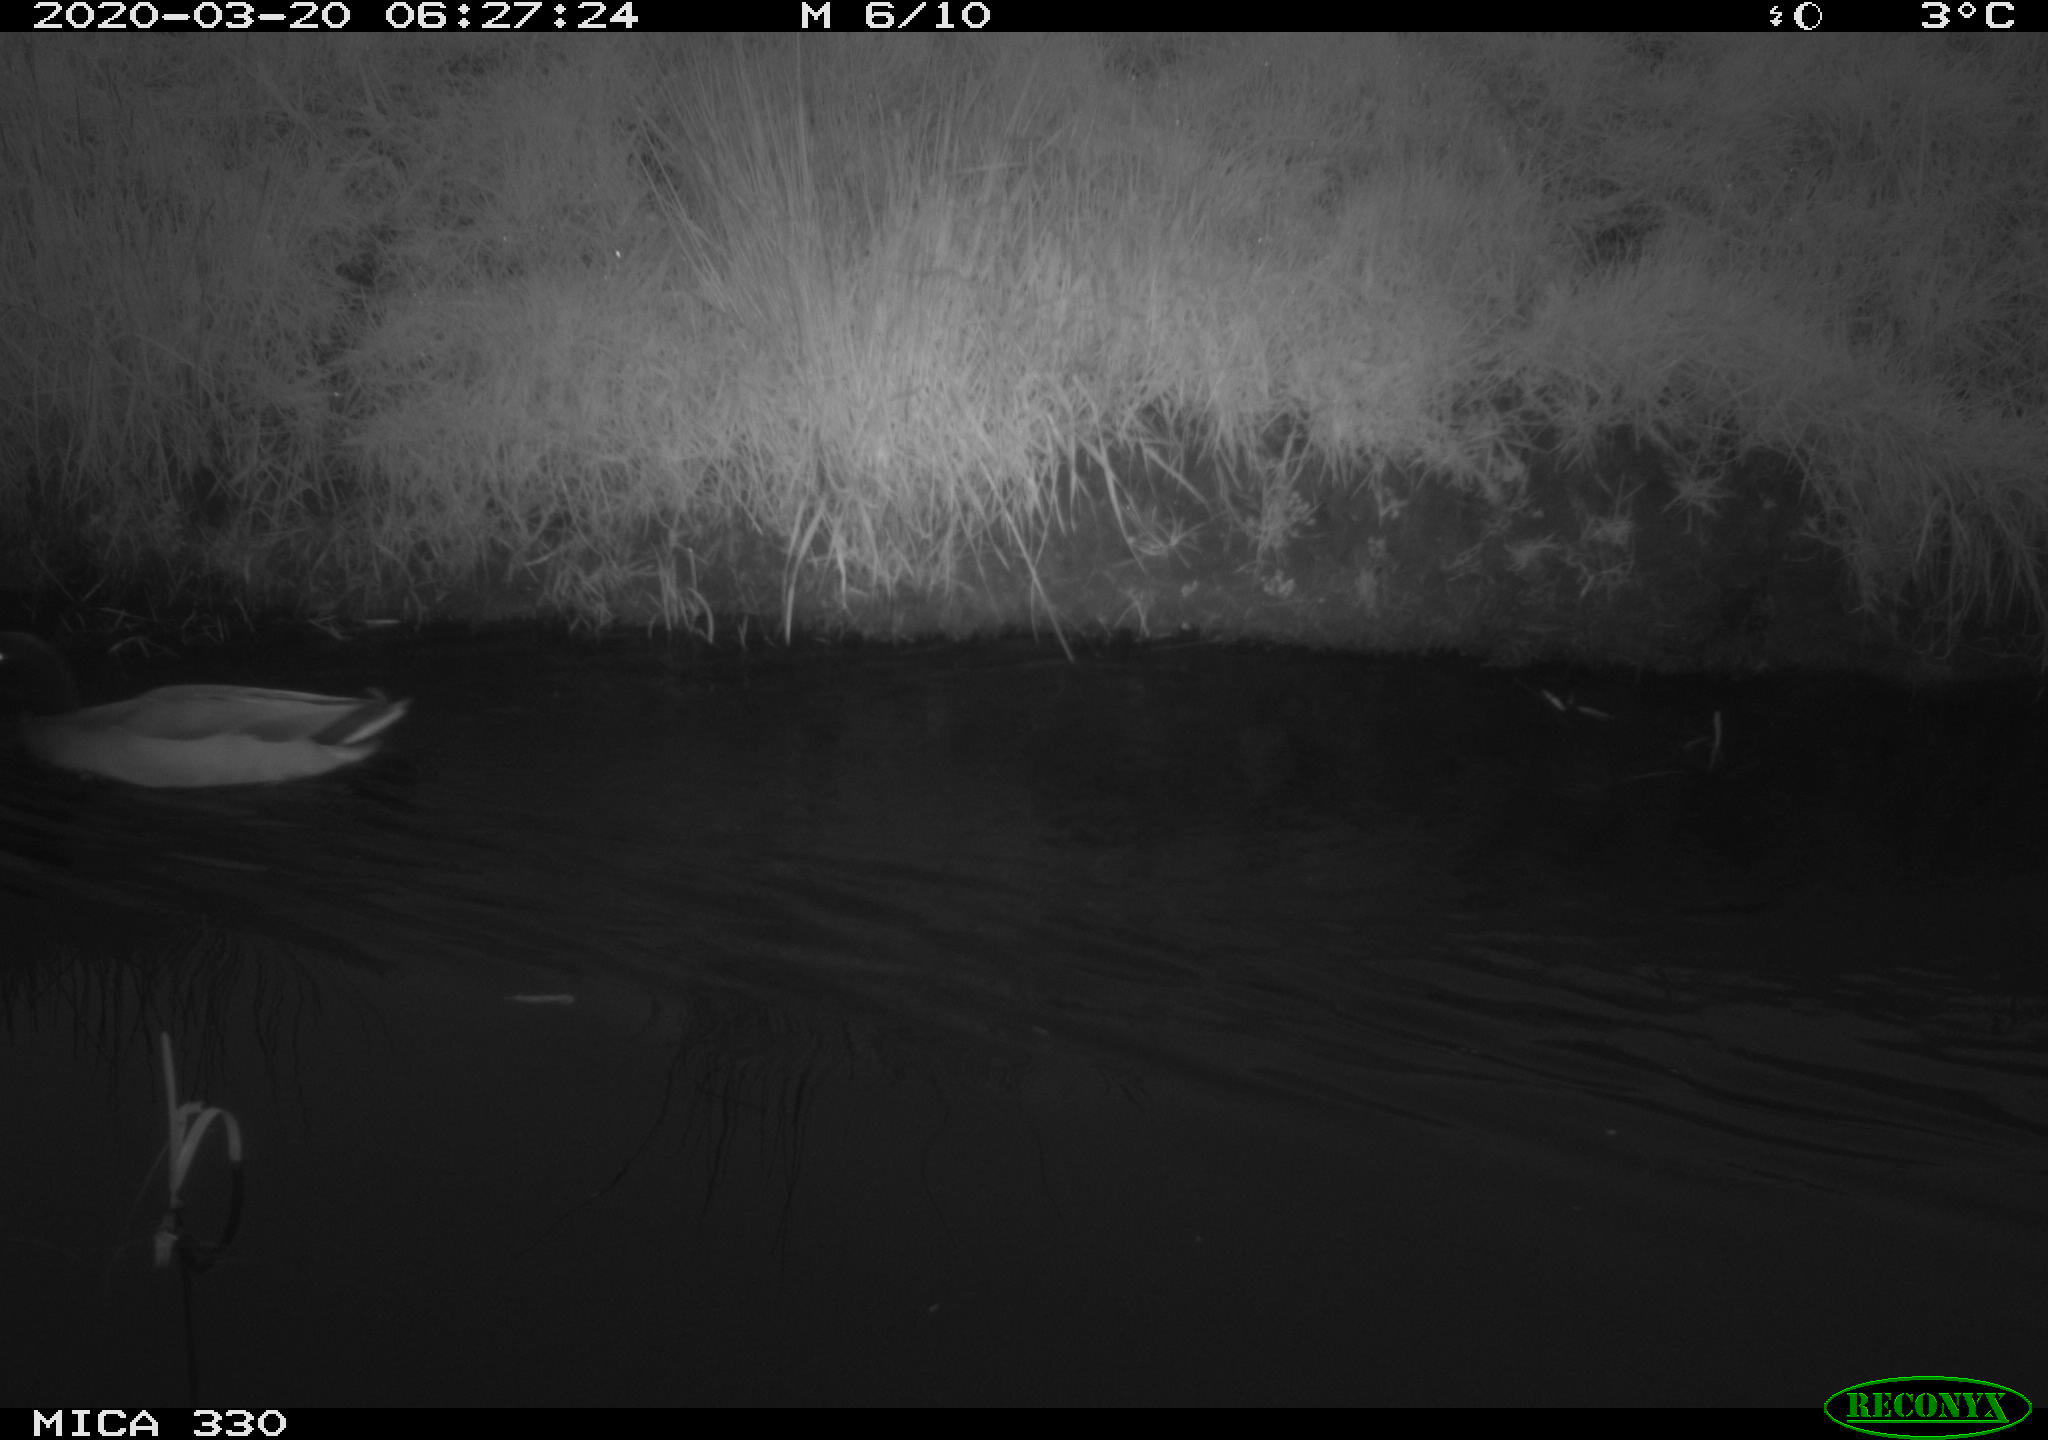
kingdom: Animalia
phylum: Chordata
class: Aves
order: Anseriformes
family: Anatidae
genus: Anas
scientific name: Anas platyrhynchos
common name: Mallard
